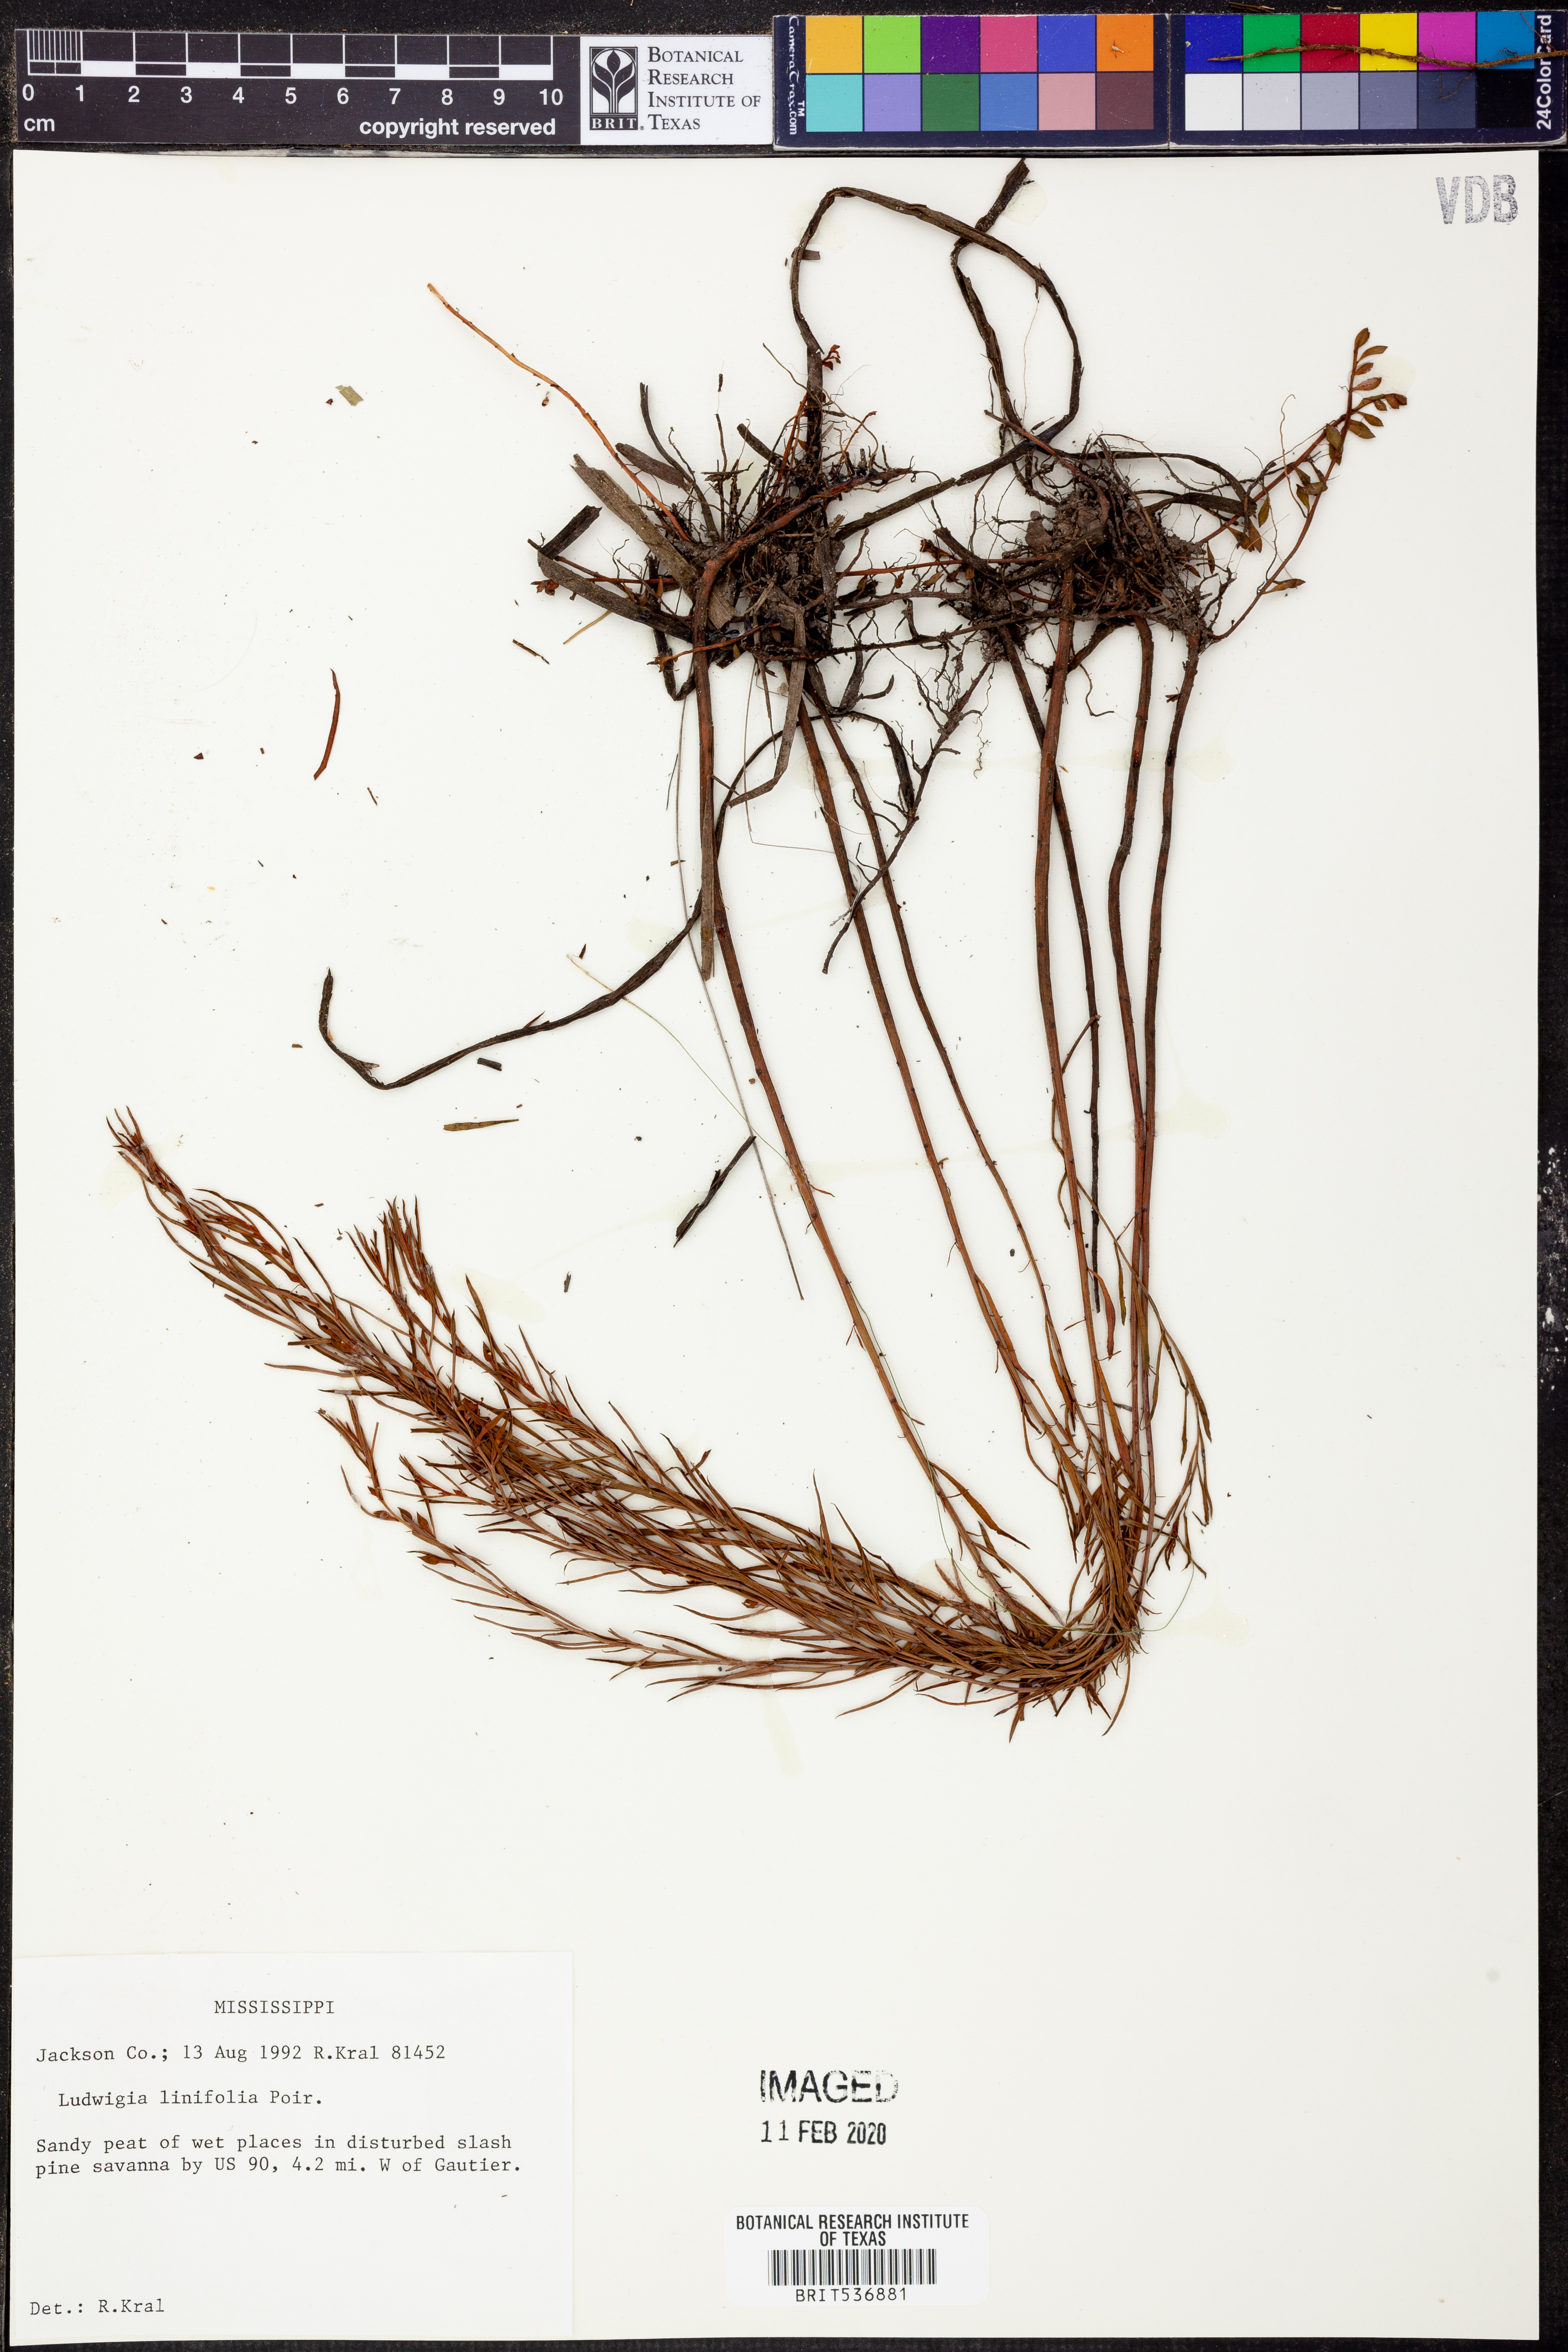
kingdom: Plantae
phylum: Tracheophyta
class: Magnoliopsida
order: Myrtales
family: Onagraceae
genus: Ludwigia
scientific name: Ludwigia linifolia
